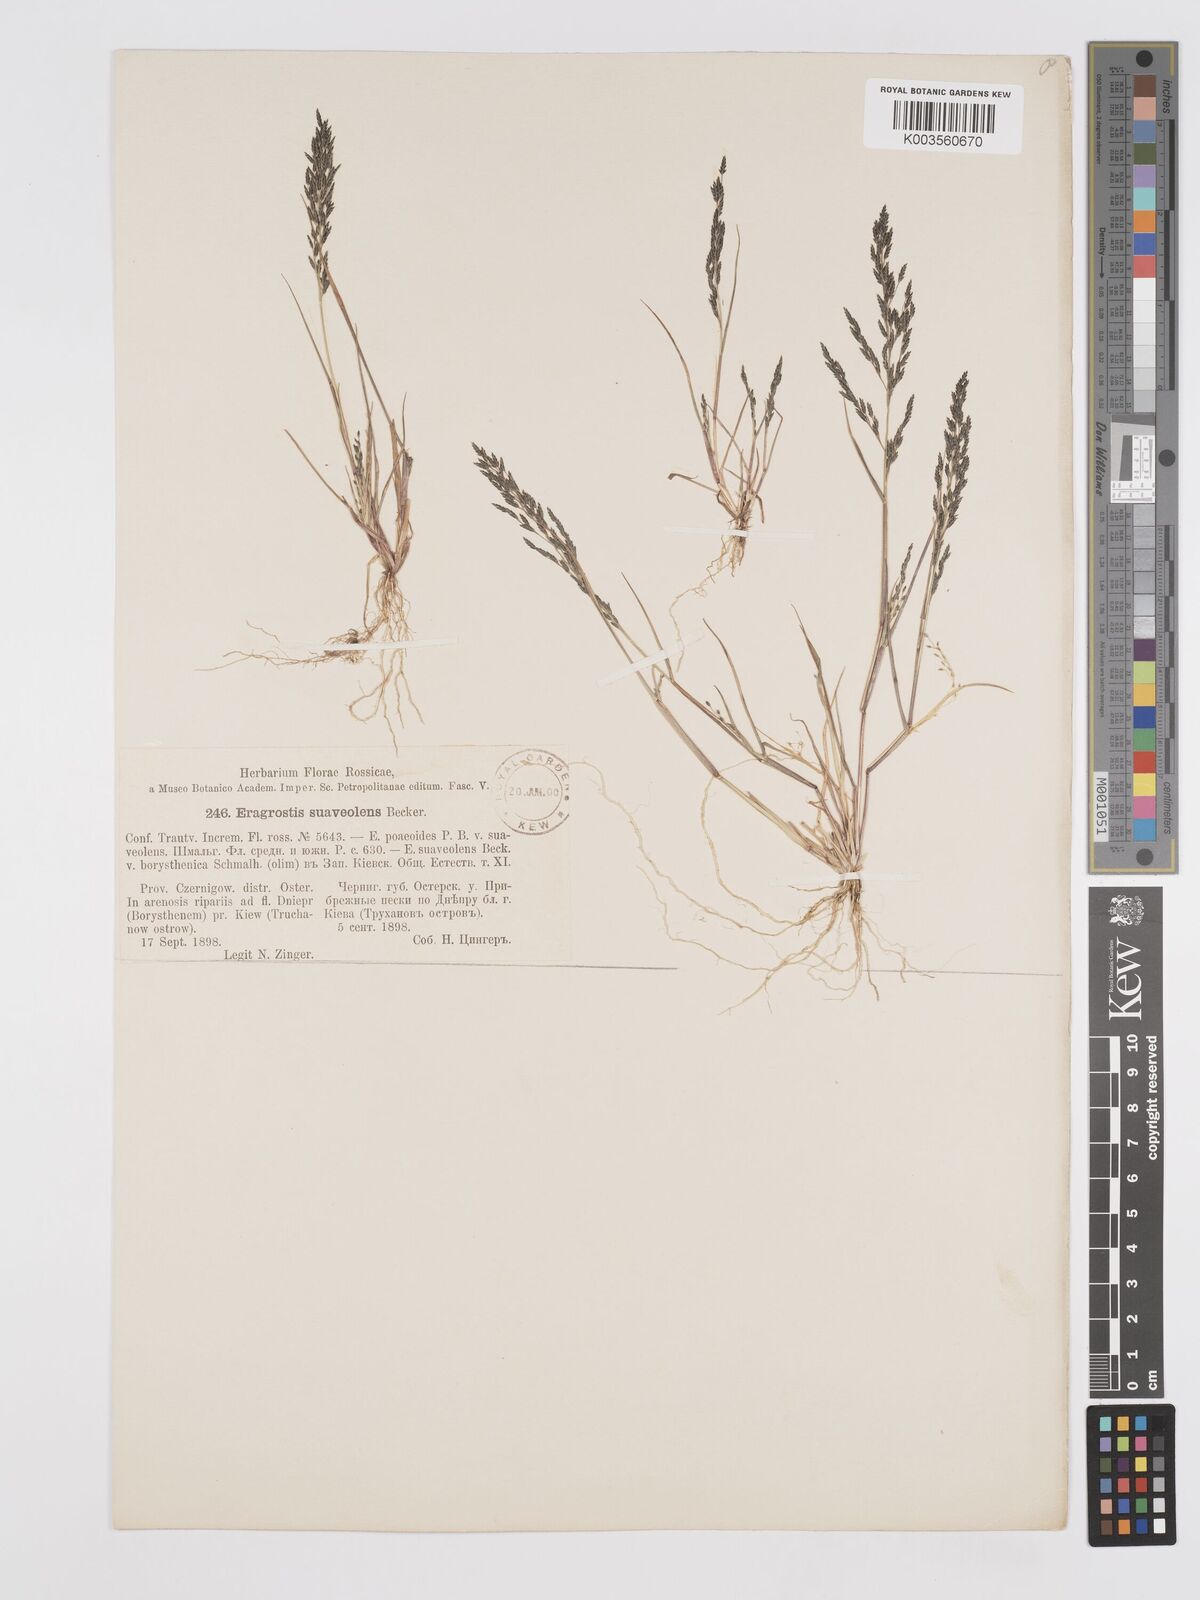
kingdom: Plantae
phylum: Tracheophyta
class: Liliopsida
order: Poales
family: Poaceae
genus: Eragrostis
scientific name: Eragrostis minor
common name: Small love-grass
